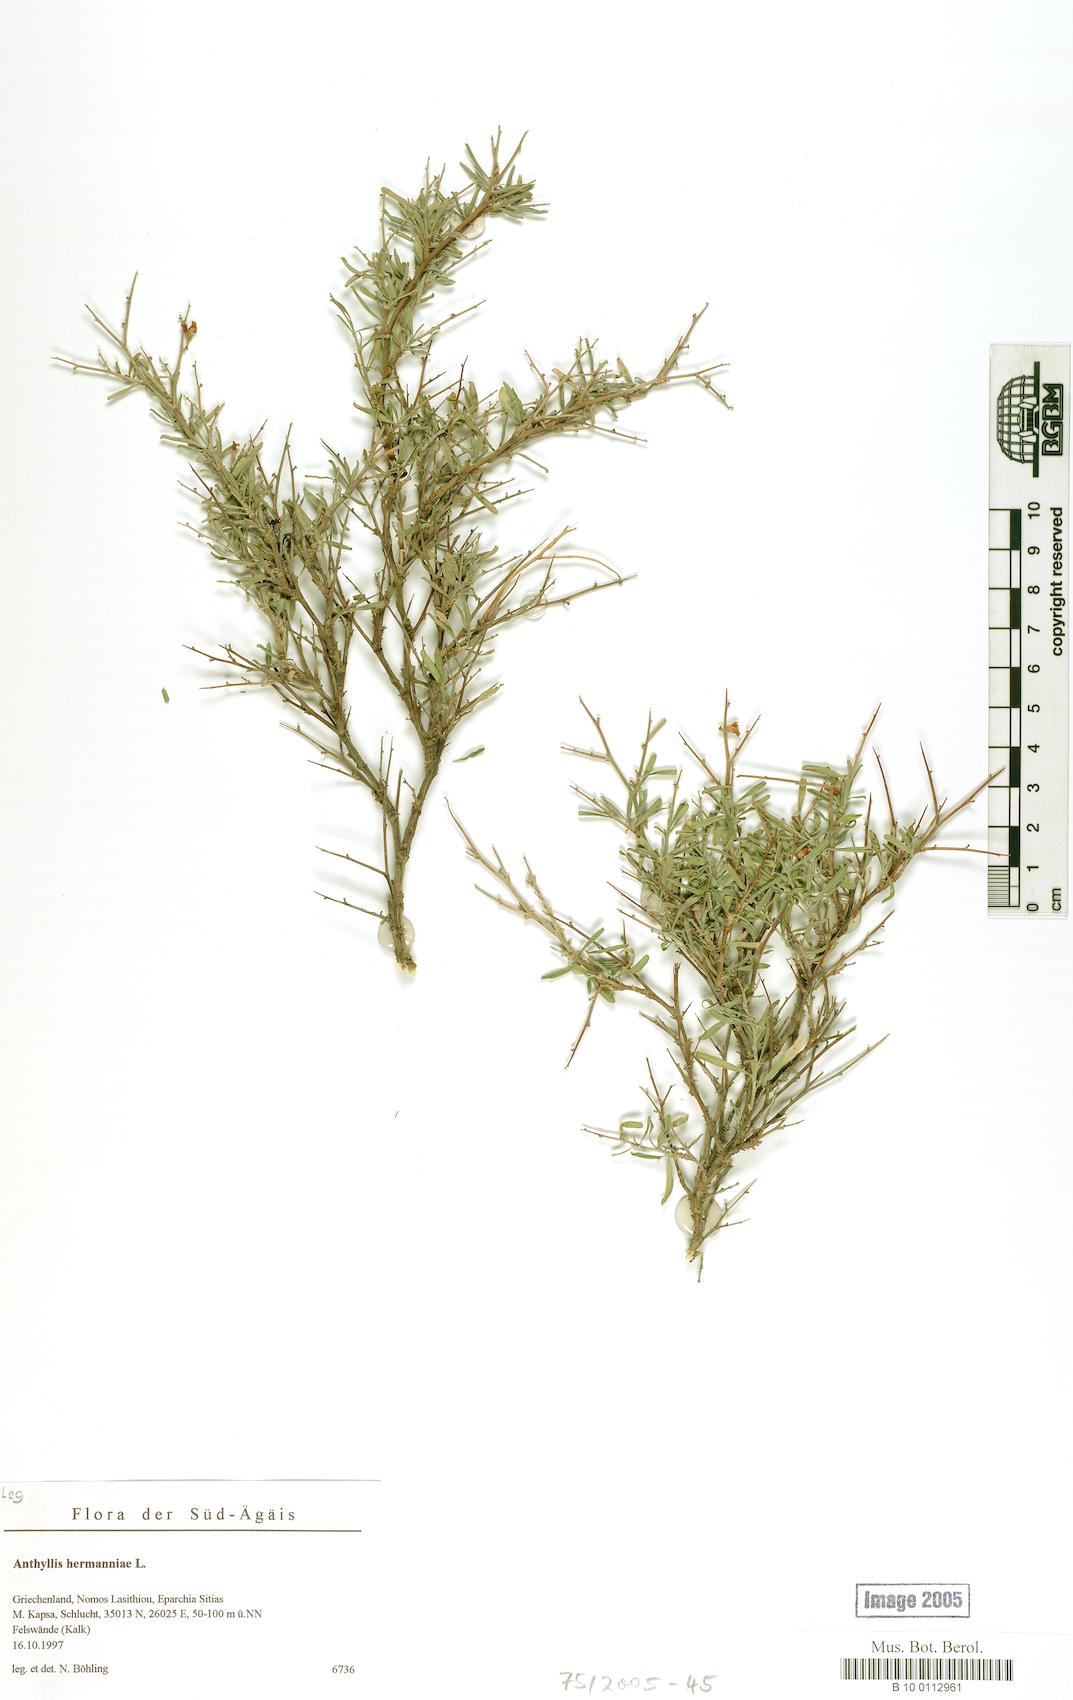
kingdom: Plantae
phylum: Tracheophyta
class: Magnoliopsida
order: Fabales
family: Fabaceae
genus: Anthyllis
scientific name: Anthyllis hermanniae
